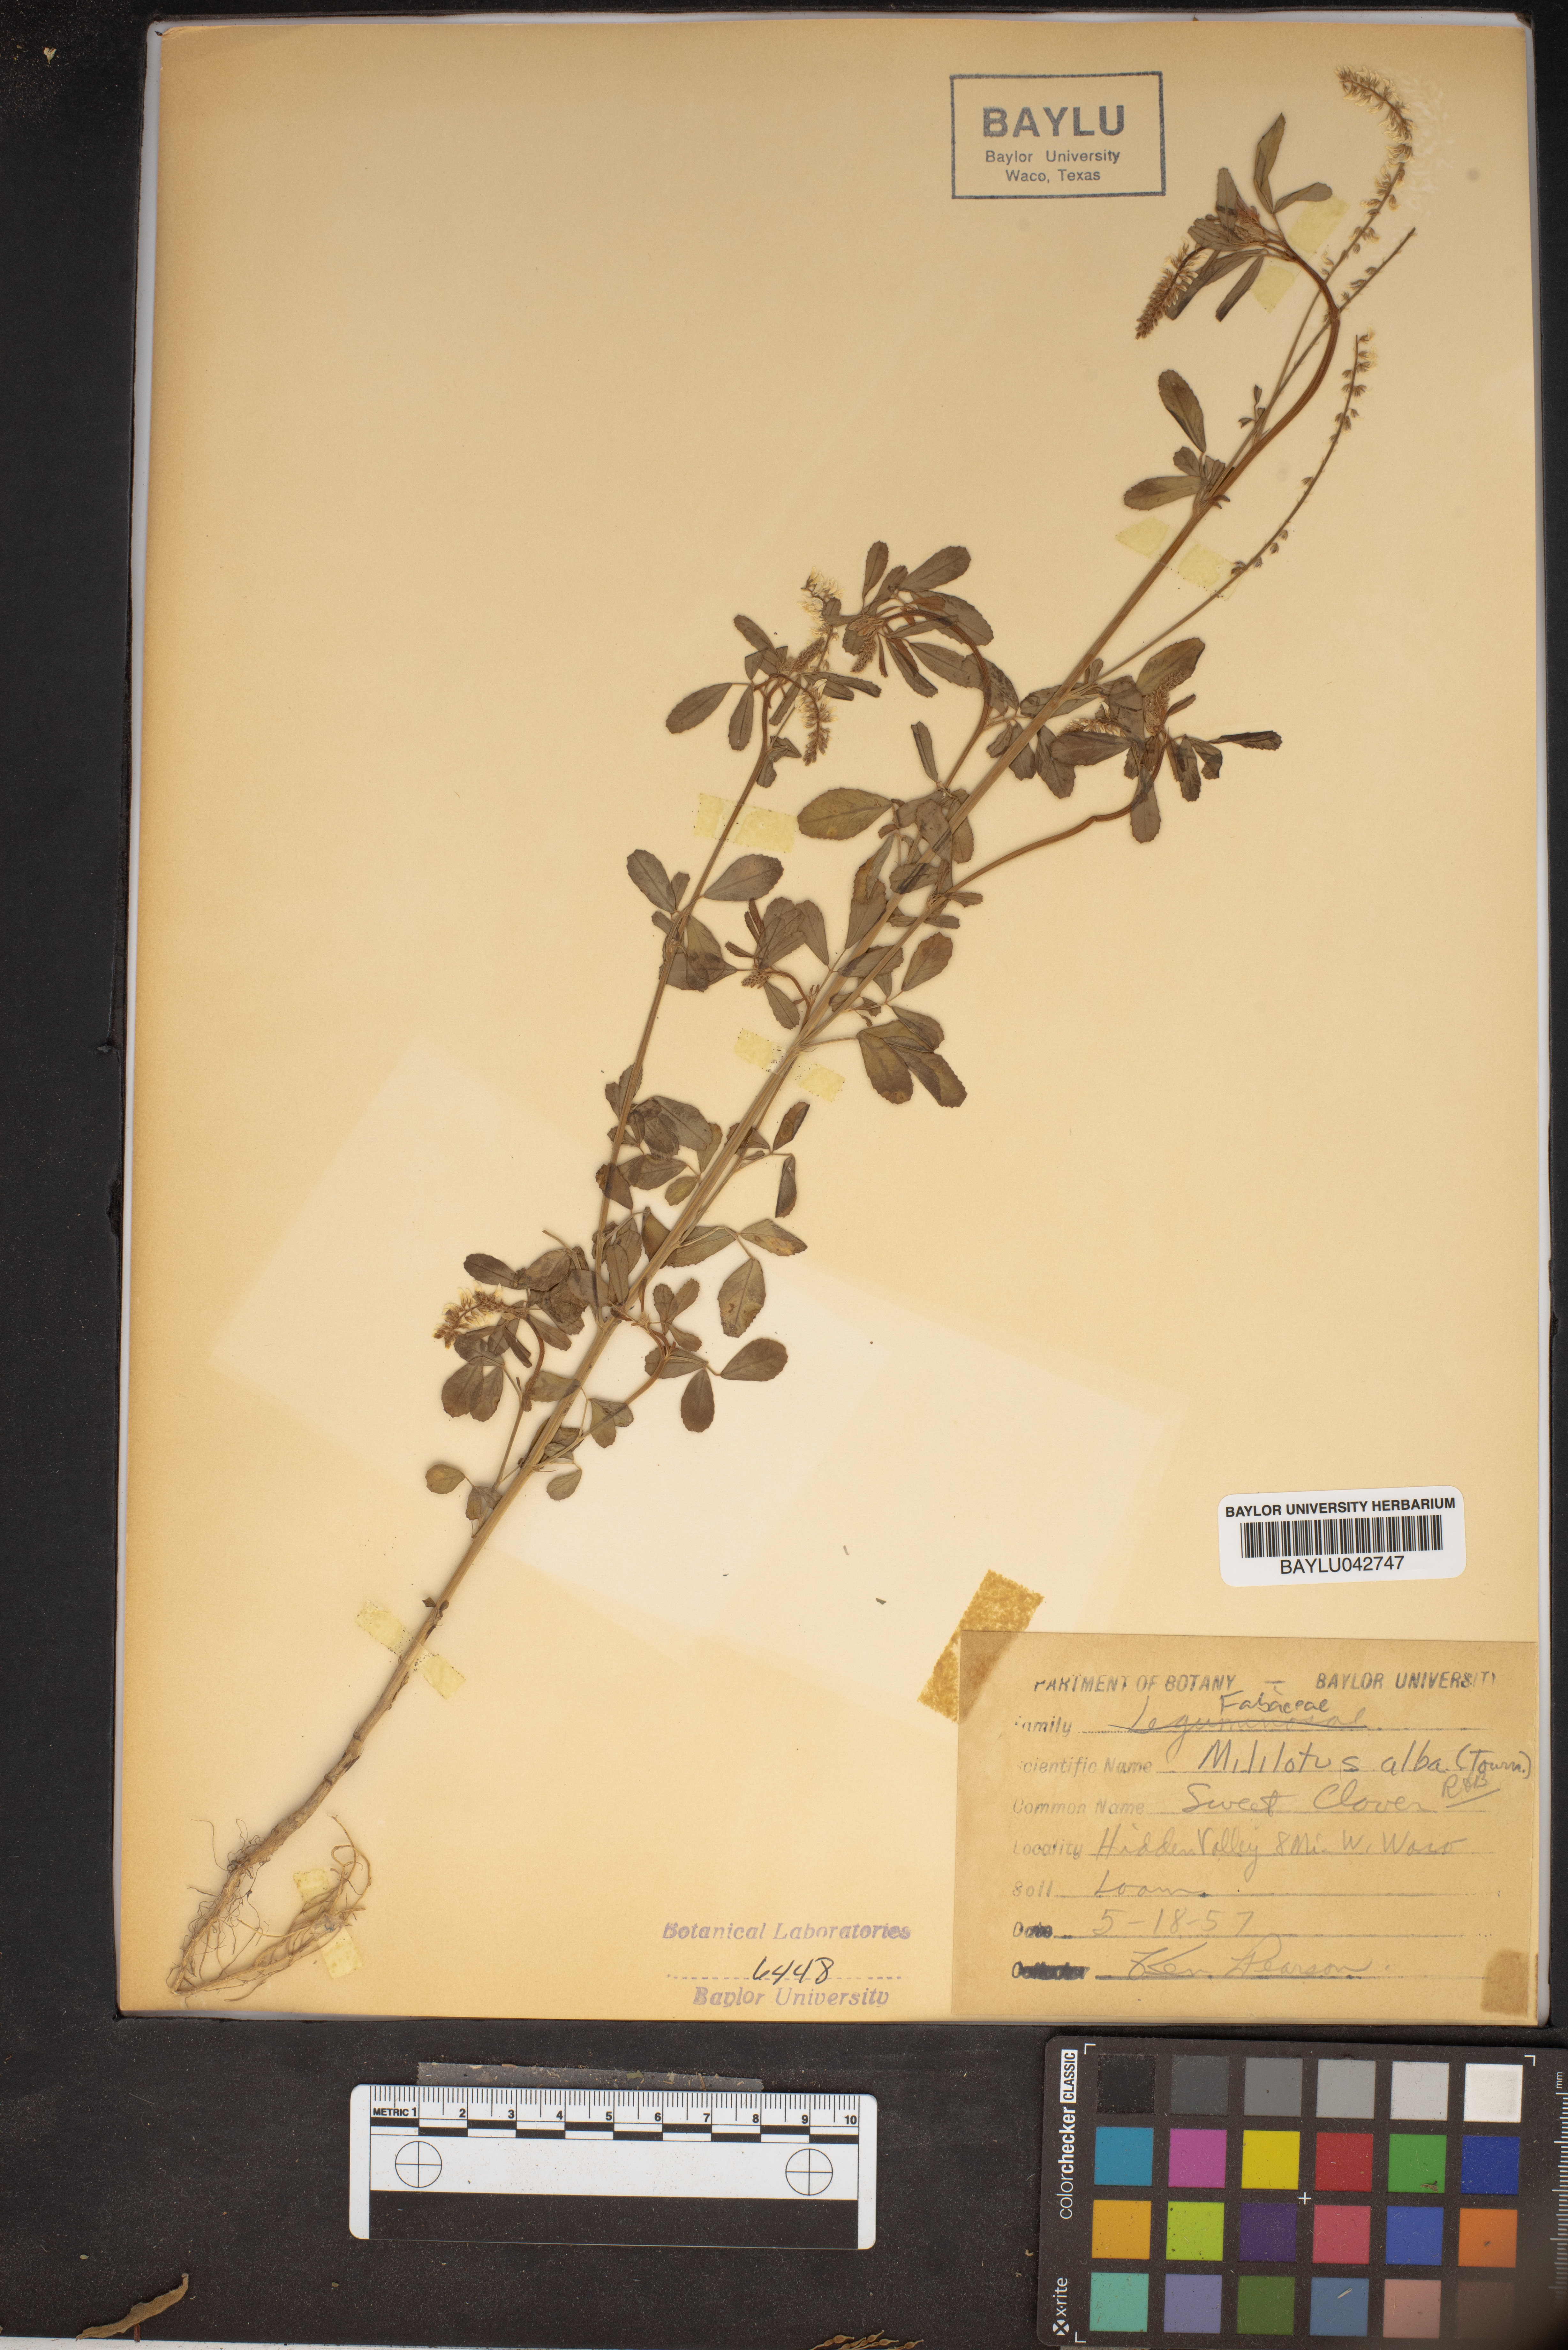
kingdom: Plantae
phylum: Tracheophyta
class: Magnoliopsida
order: Fabales
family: Fabaceae
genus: Melilotus
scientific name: Melilotus albus
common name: White melilot
